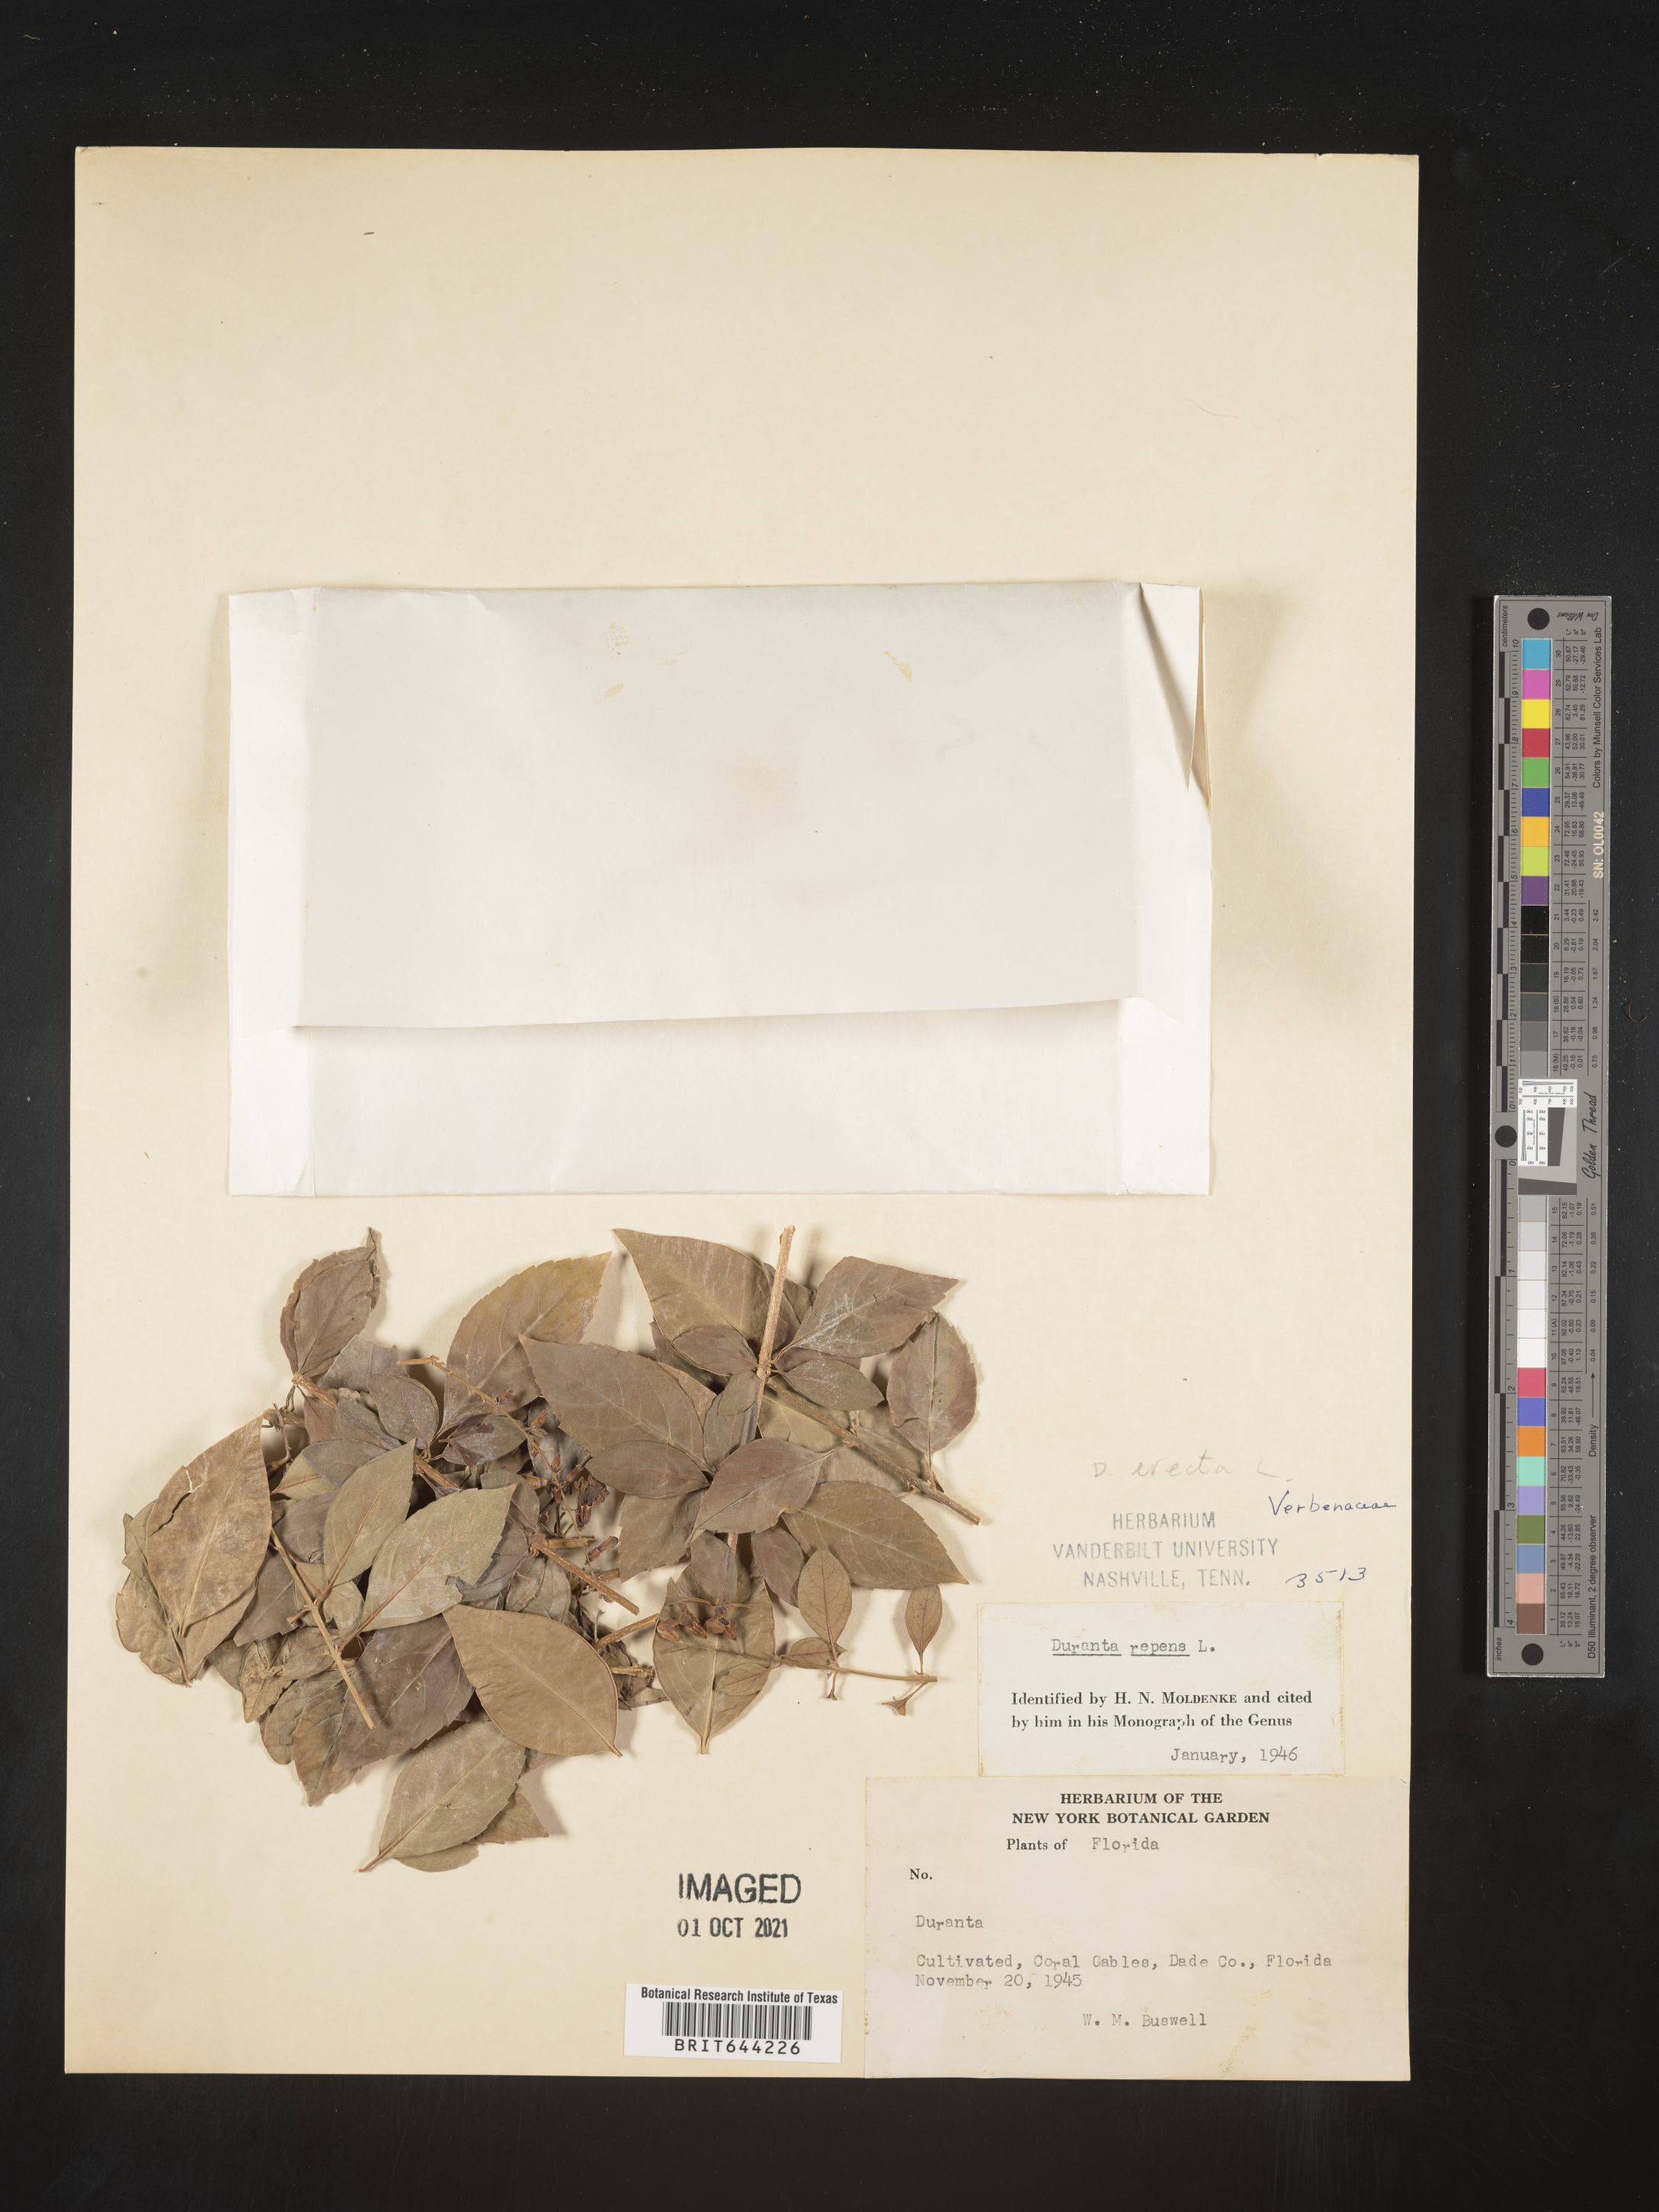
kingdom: Plantae
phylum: Tracheophyta
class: Magnoliopsida
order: Lamiales
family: Verbenaceae
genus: Duranta
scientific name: Duranta erecta
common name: Golden dewdrops
